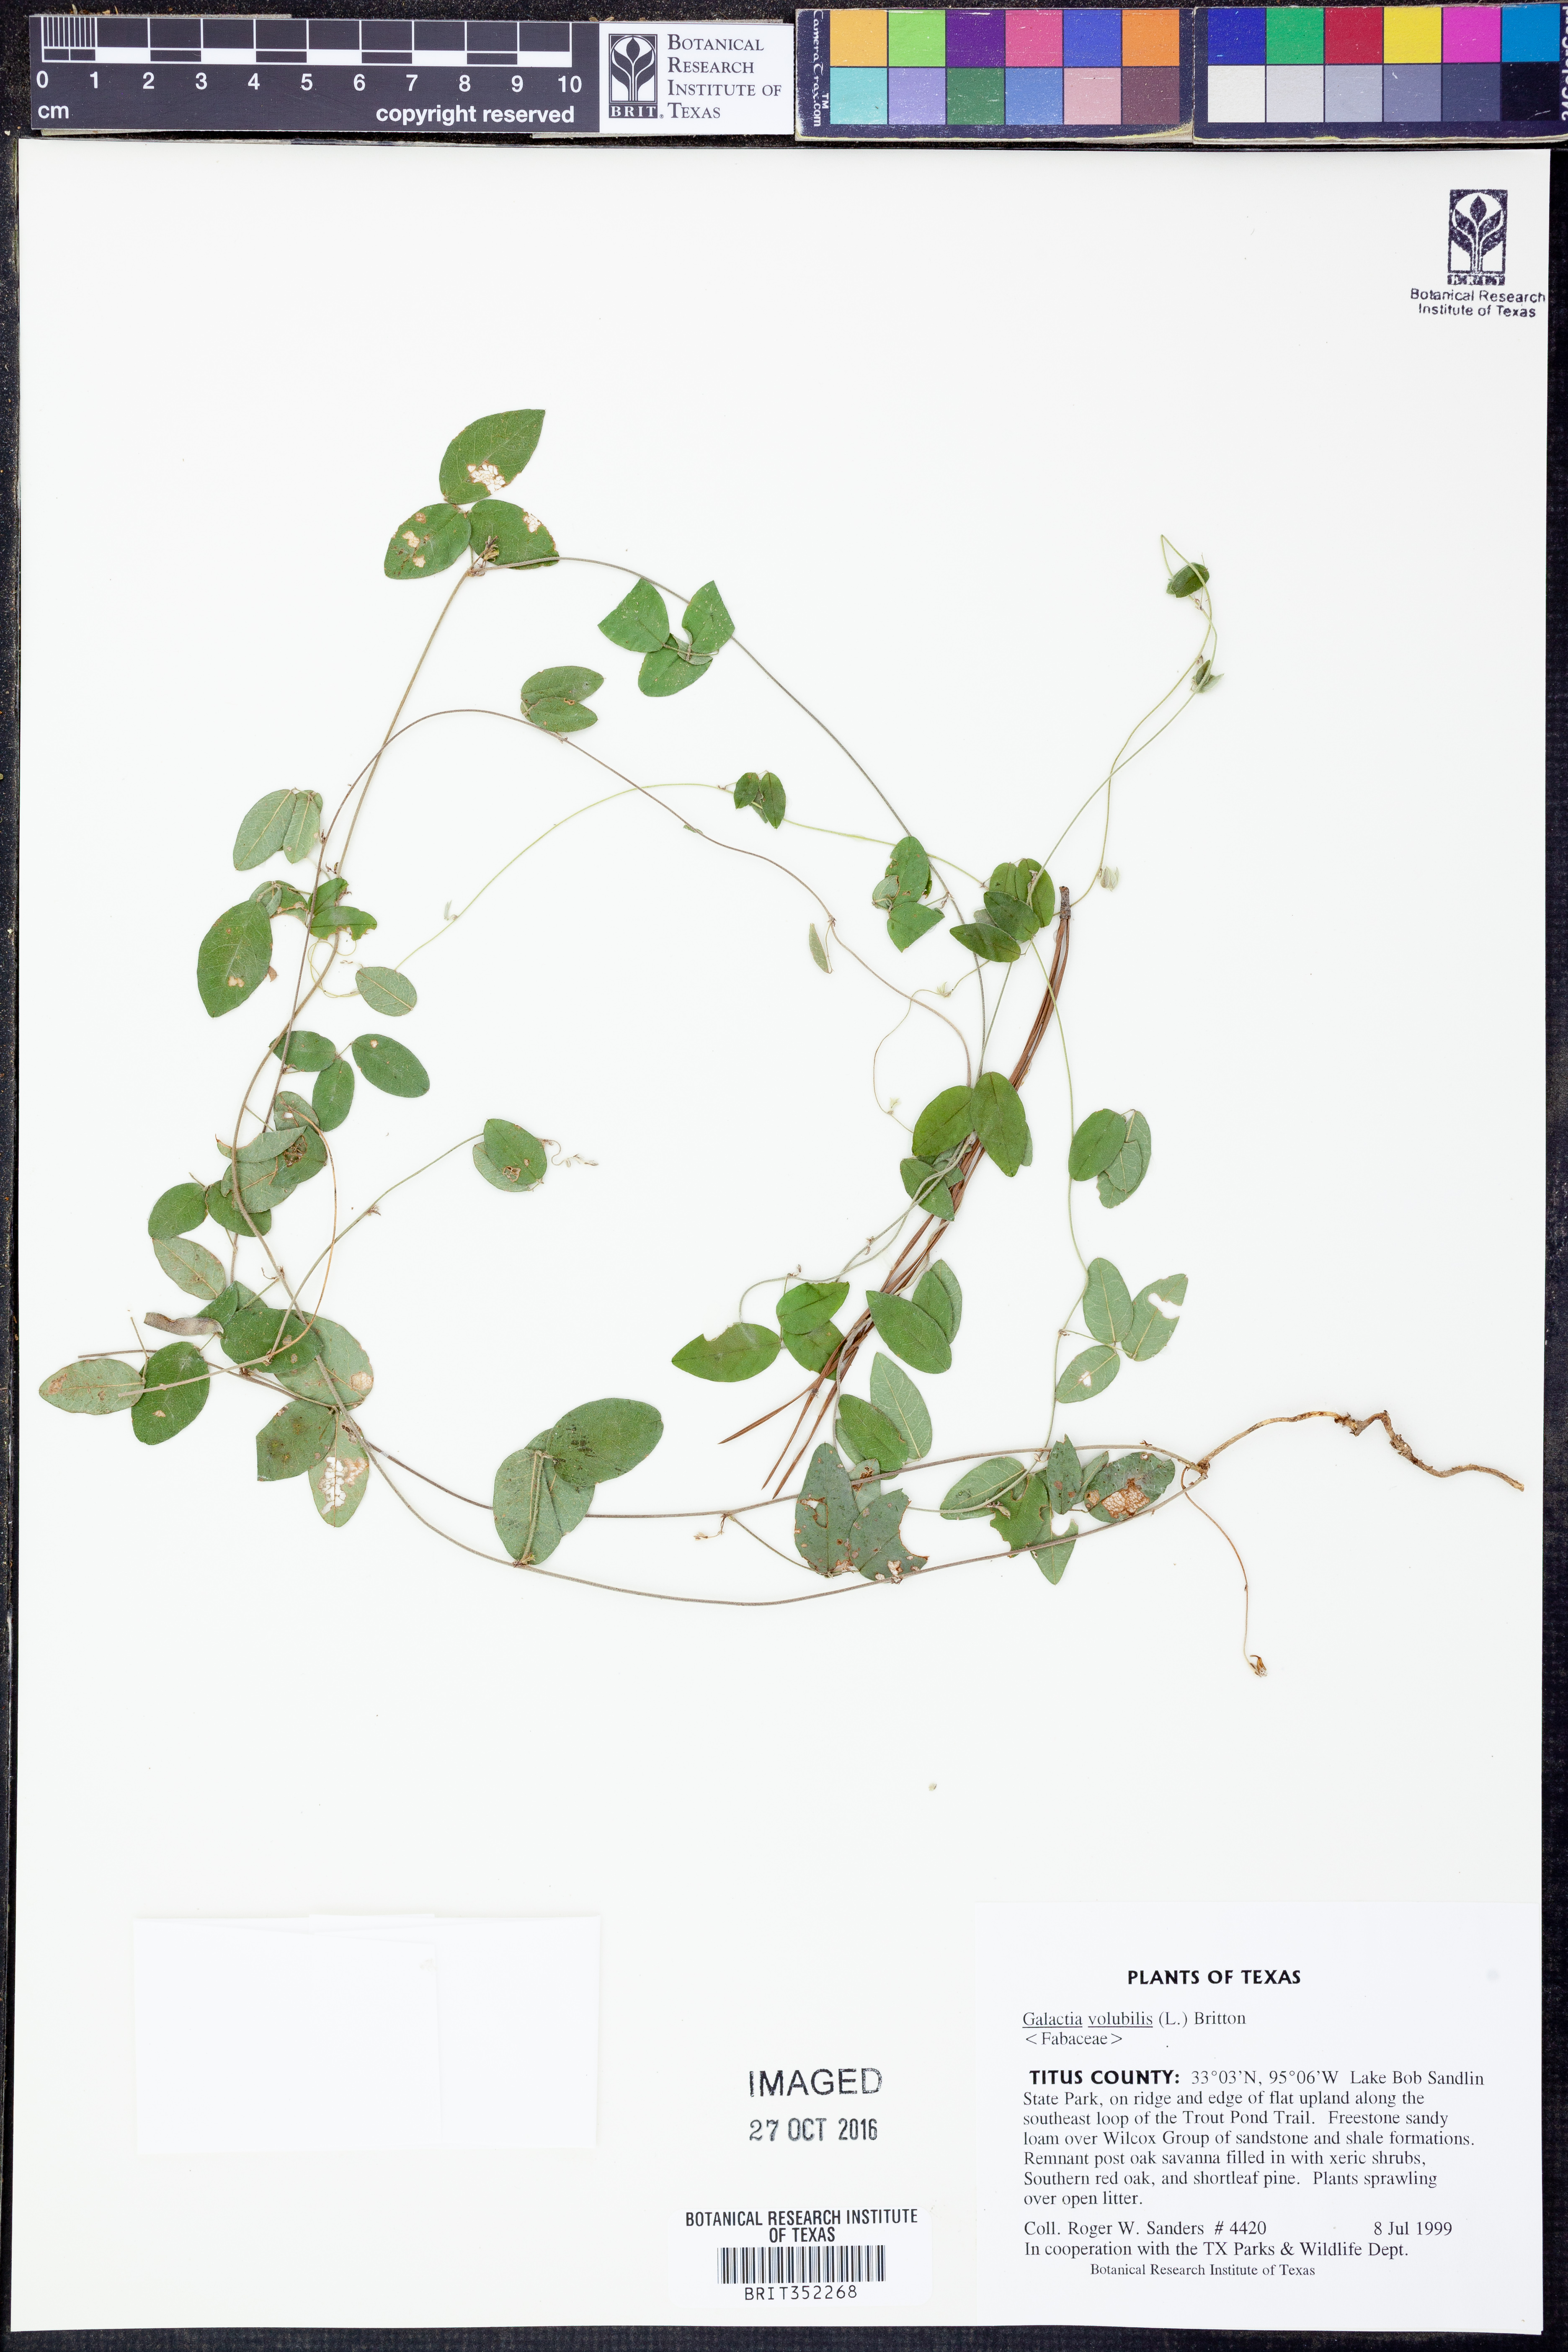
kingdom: Plantae
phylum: Tracheophyta
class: Magnoliopsida
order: Fabales
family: Fabaceae
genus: Galactia
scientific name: Galactia volubilis
